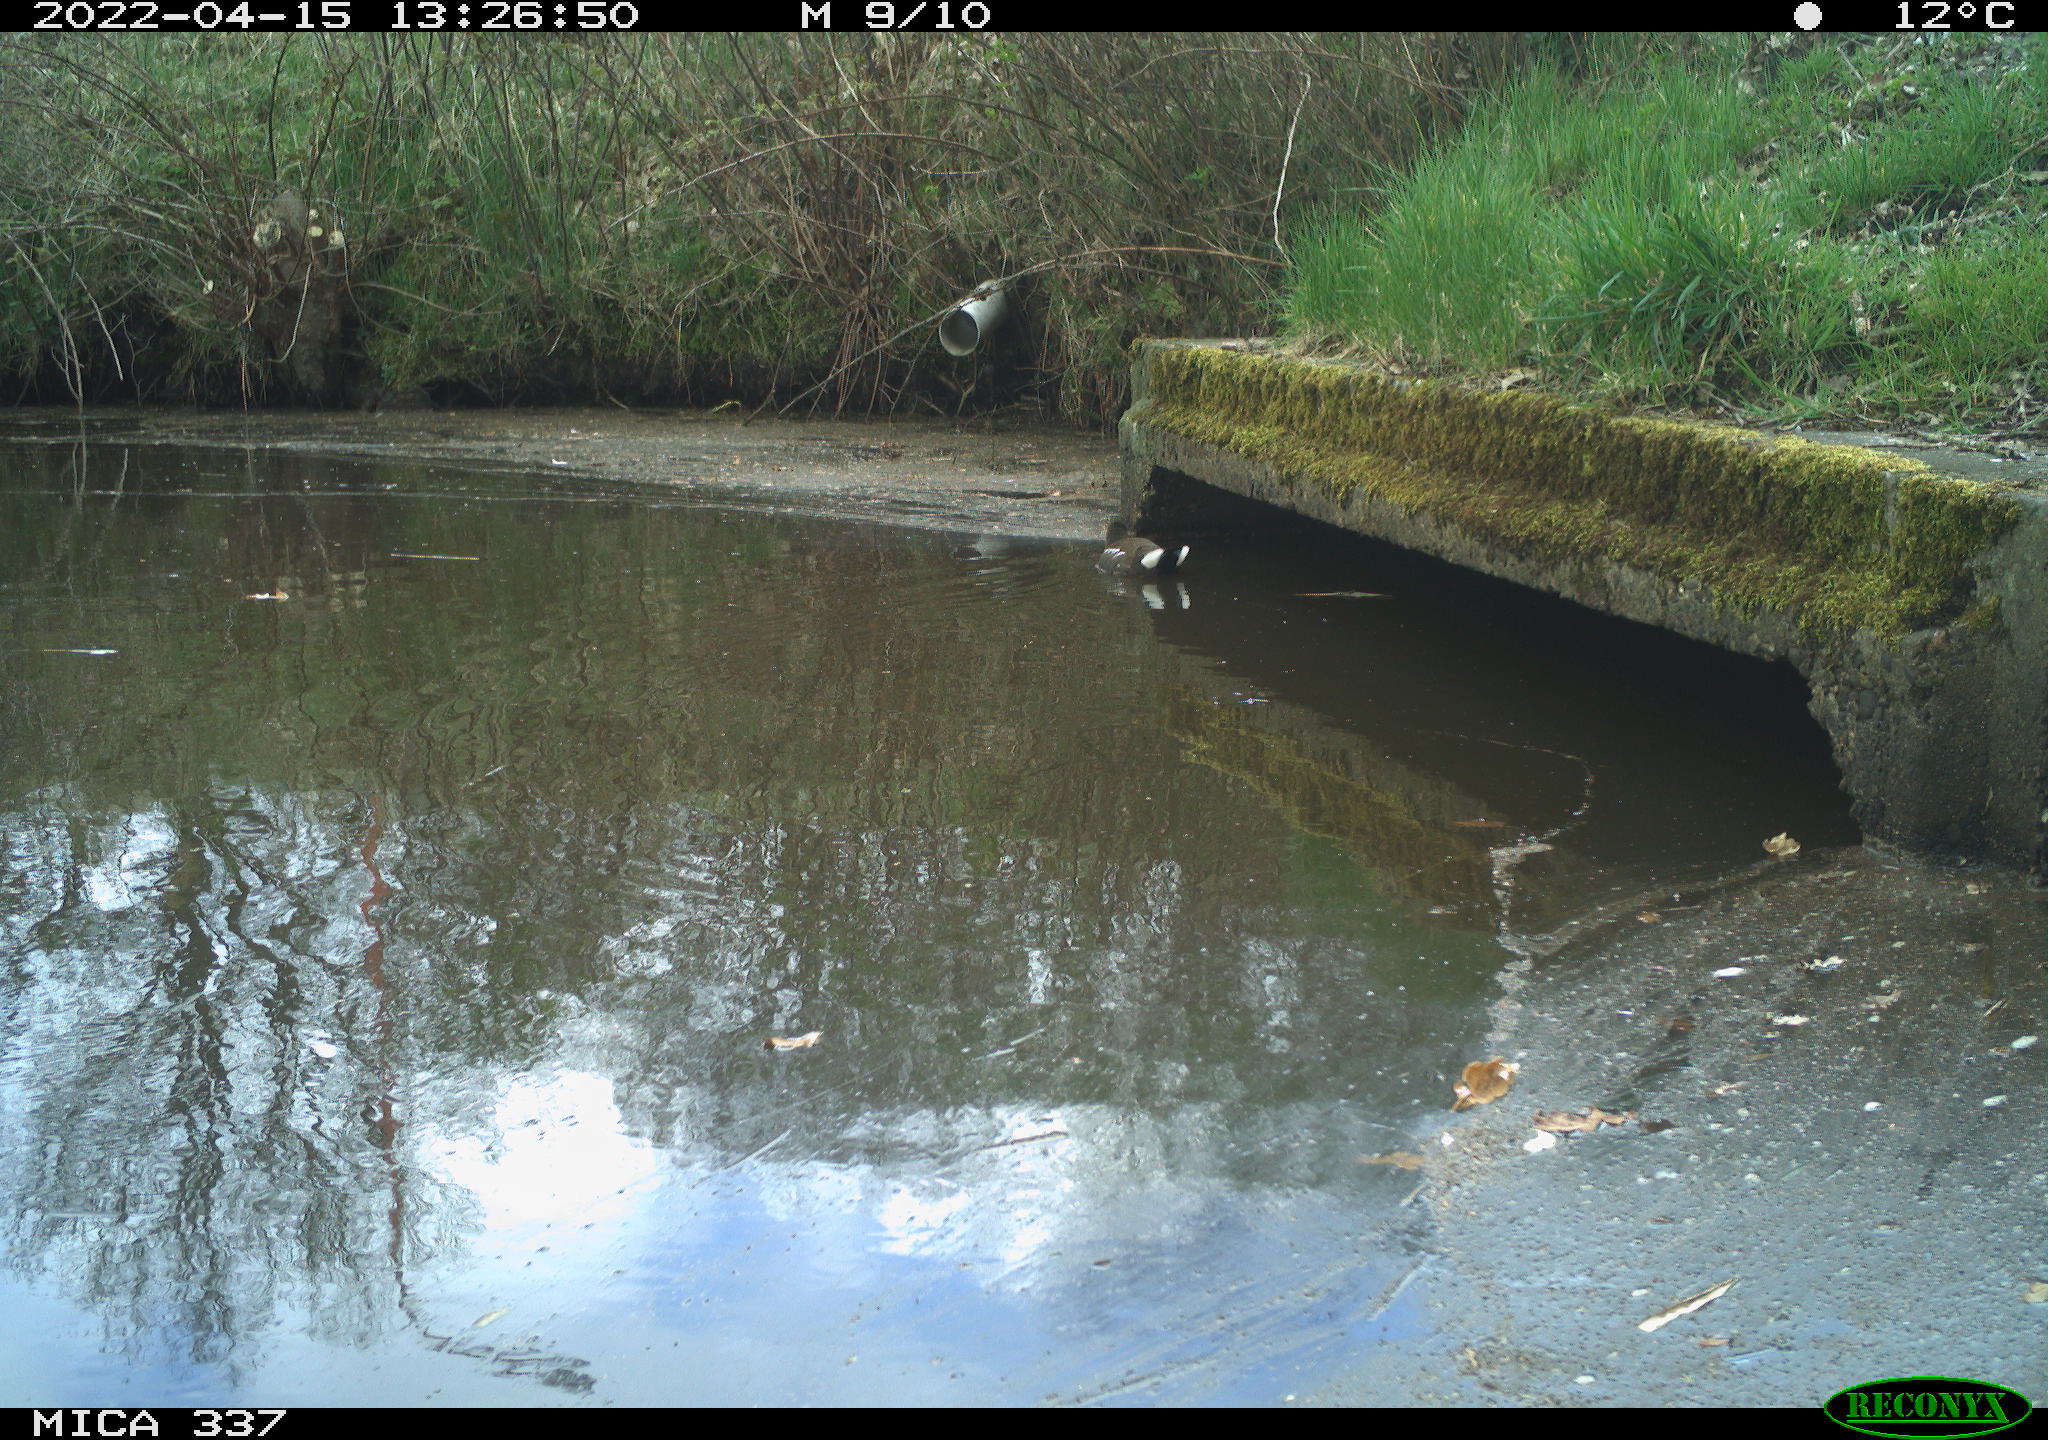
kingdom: Animalia
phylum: Chordata
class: Aves
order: Gruiformes
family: Rallidae
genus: Gallinula
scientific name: Gallinula chloropus
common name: Common moorhen
